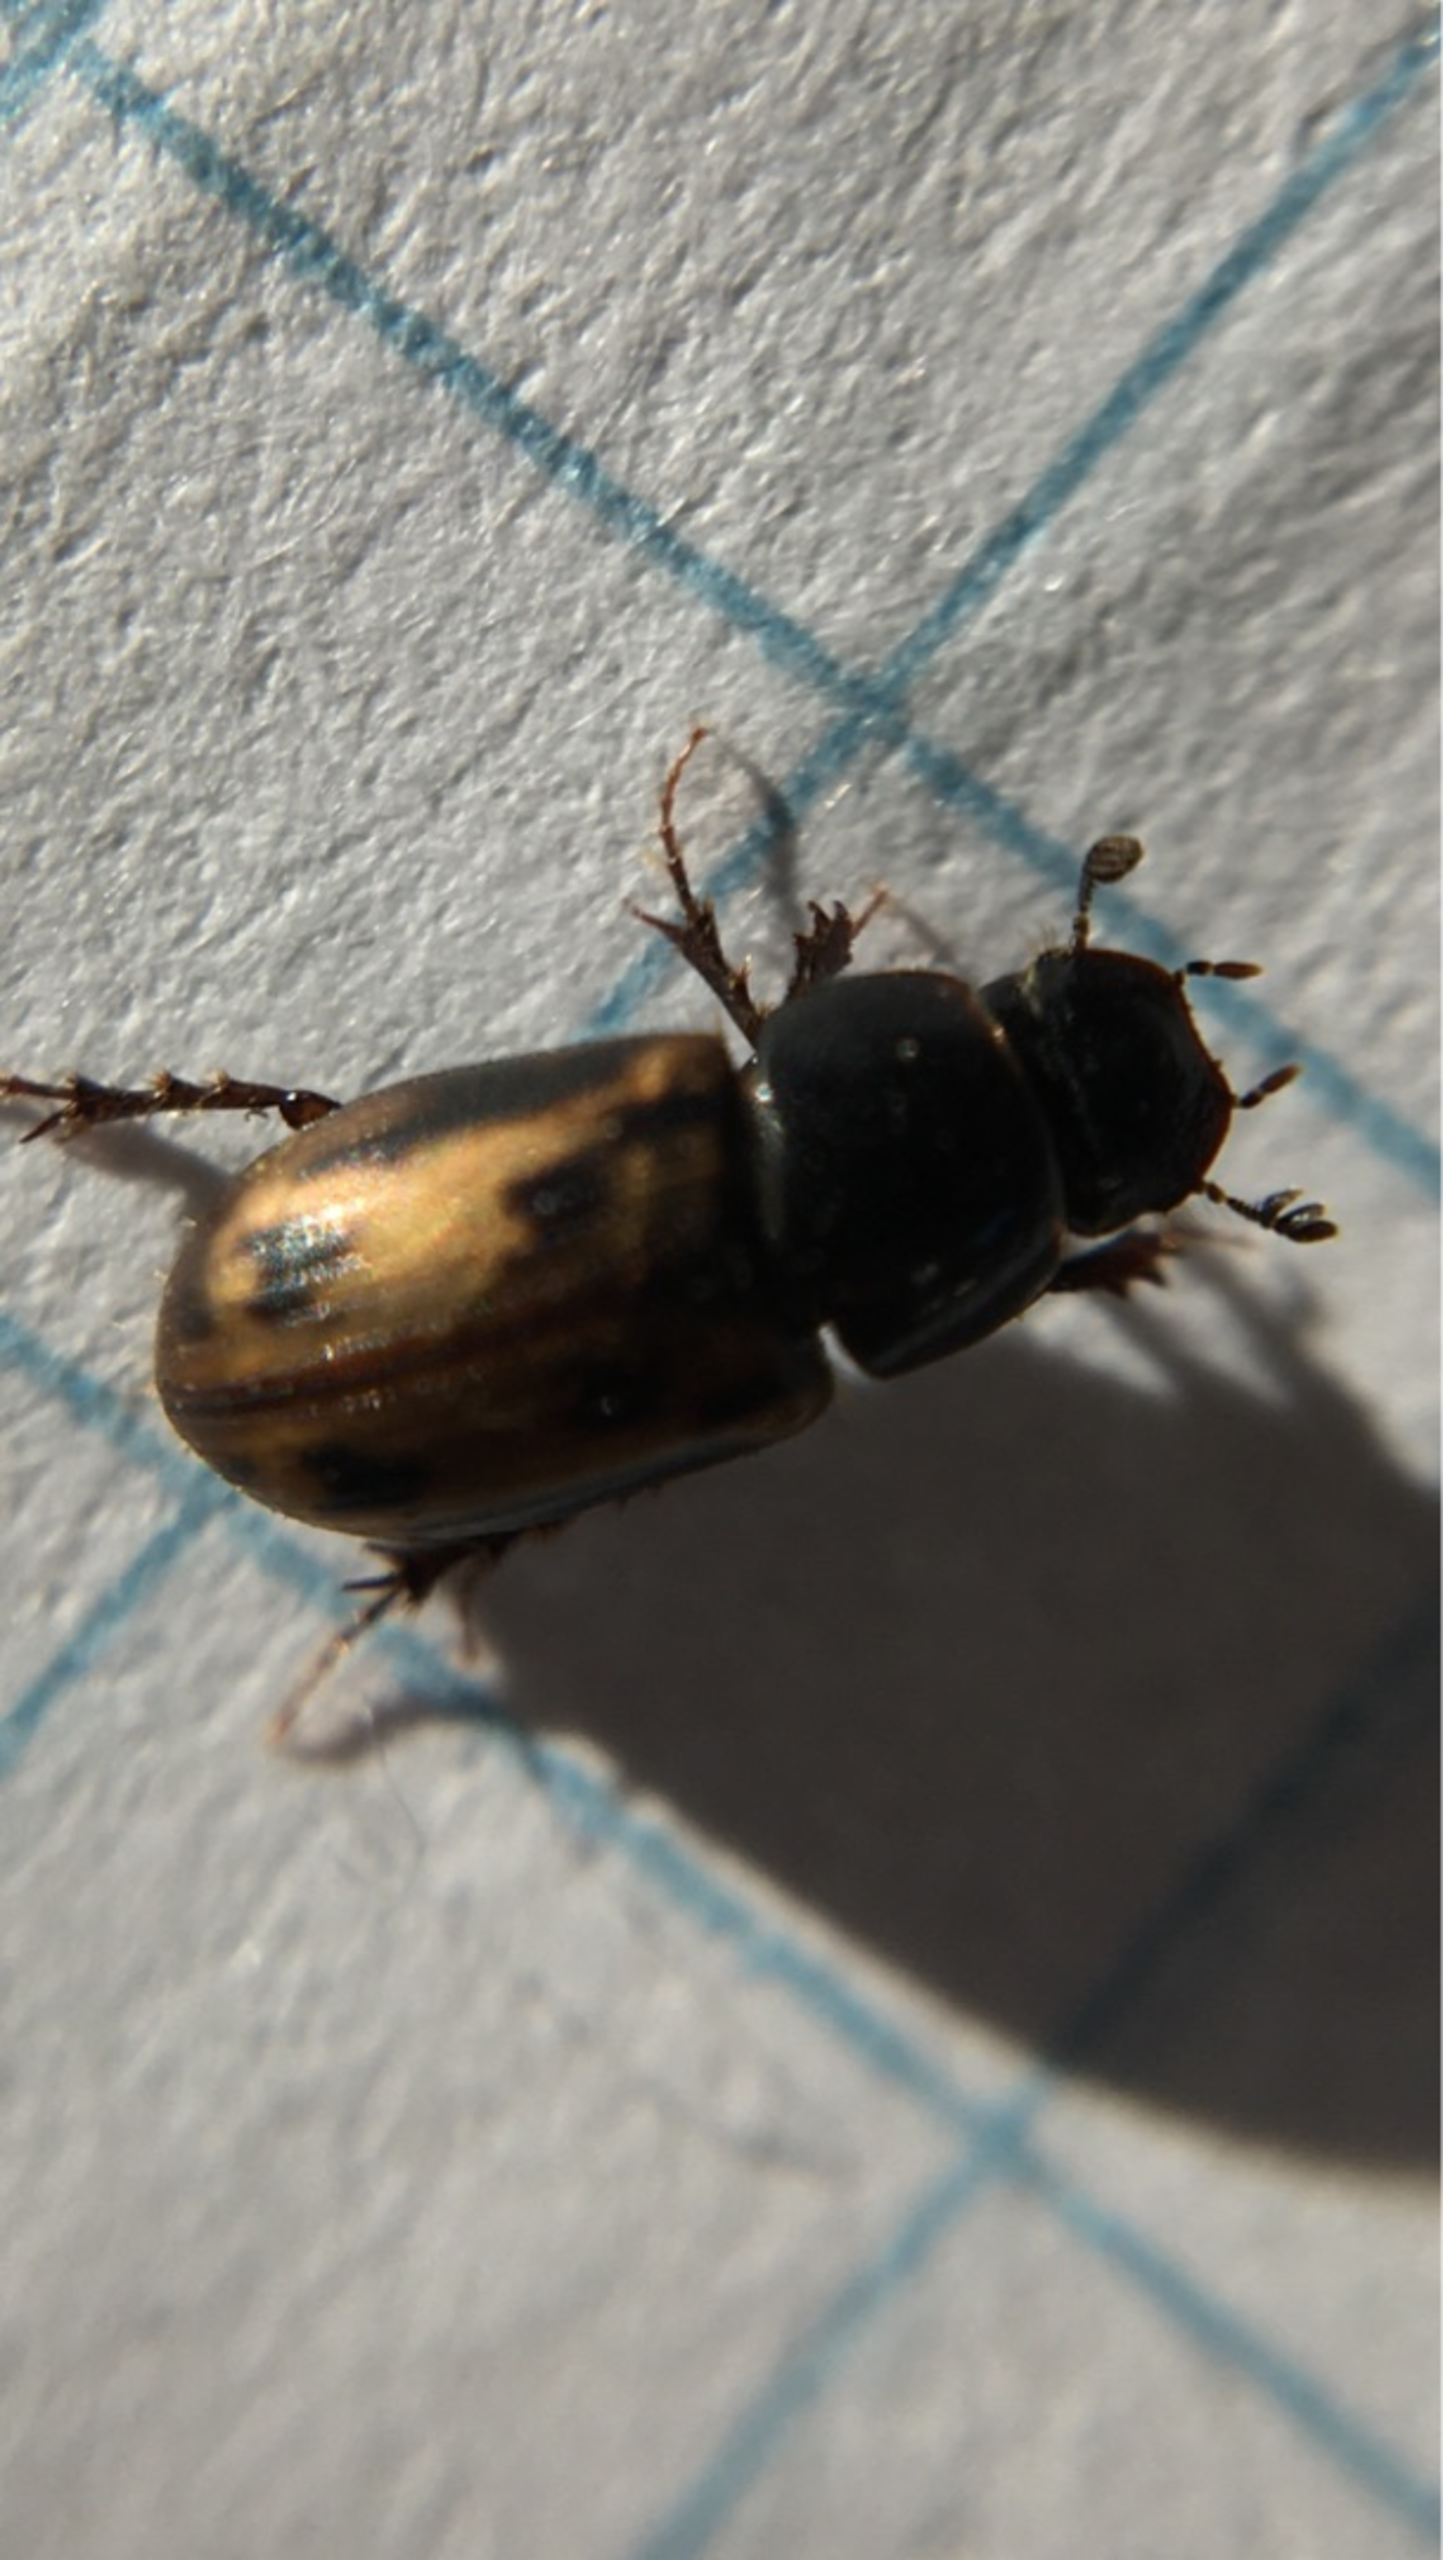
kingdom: Animalia
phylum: Arthropoda
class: Insecta
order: Coleoptera
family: Scarabaeidae
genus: Chilothorax
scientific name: Chilothorax distinctus
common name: Tidlig møgbille
